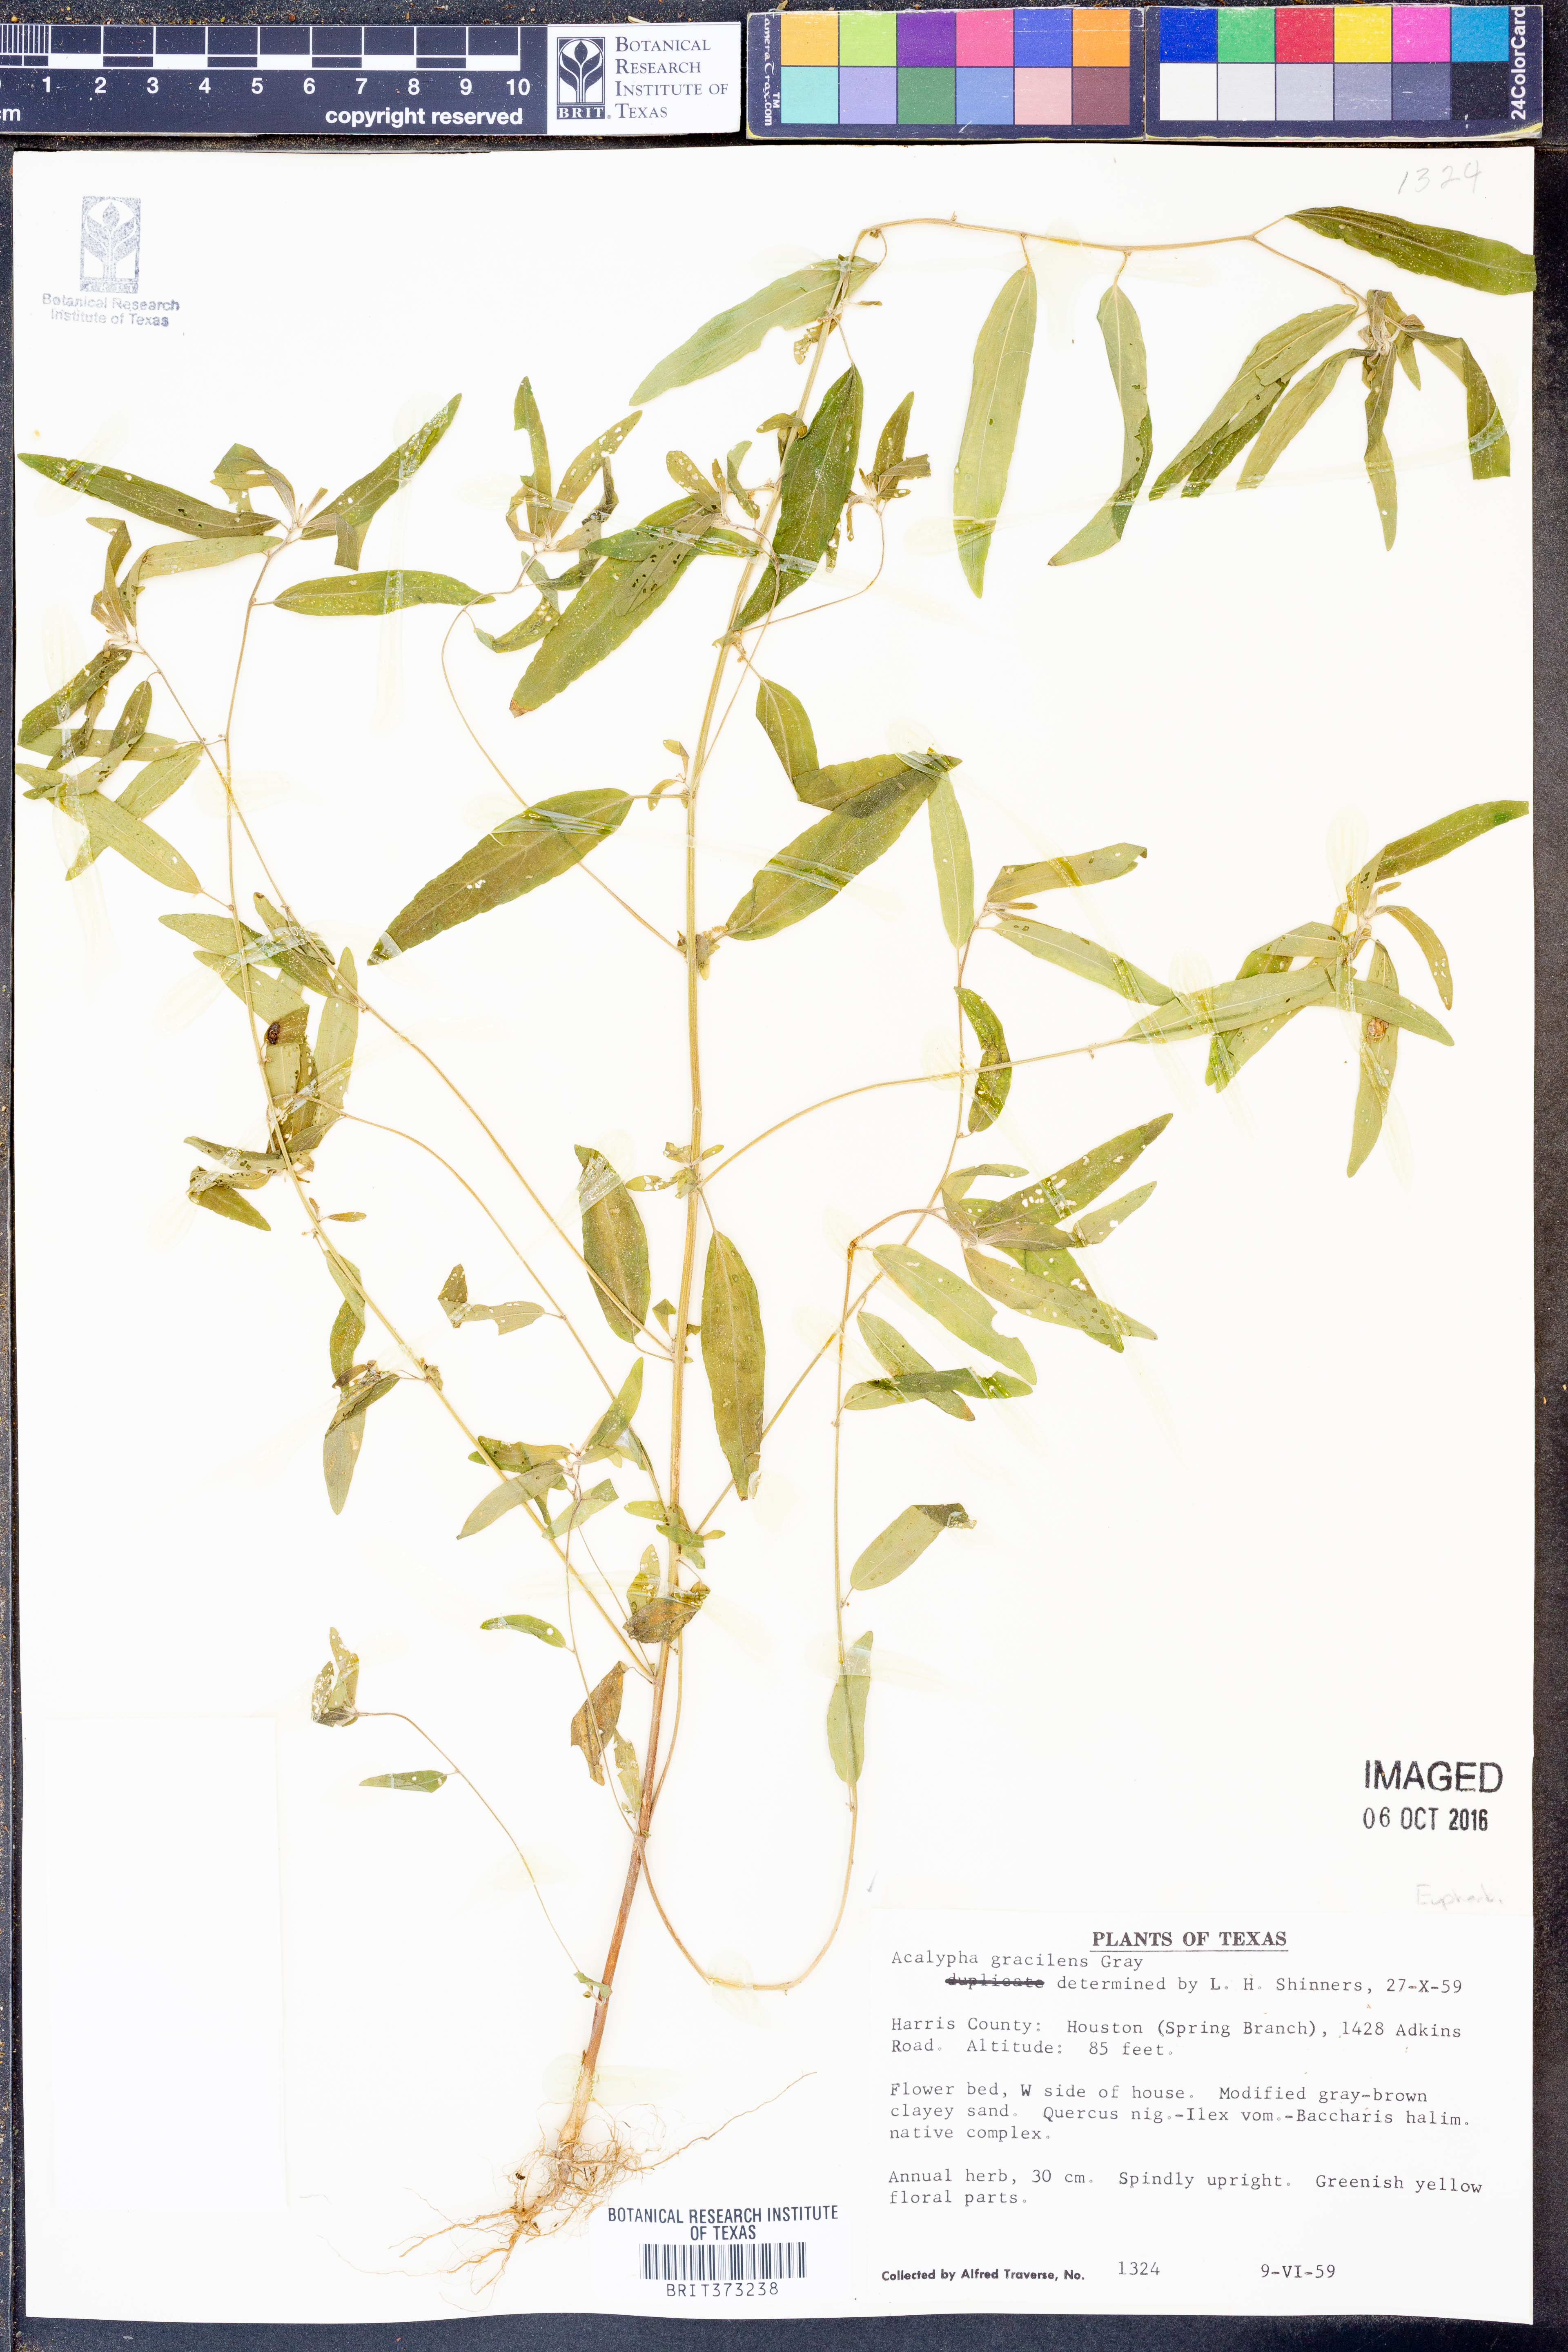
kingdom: Plantae
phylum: Tracheophyta
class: Magnoliopsida
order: Malpighiales
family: Euphorbiaceae
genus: Acalypha
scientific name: Acalypha gracilens
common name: Slender three-seeded mercury
